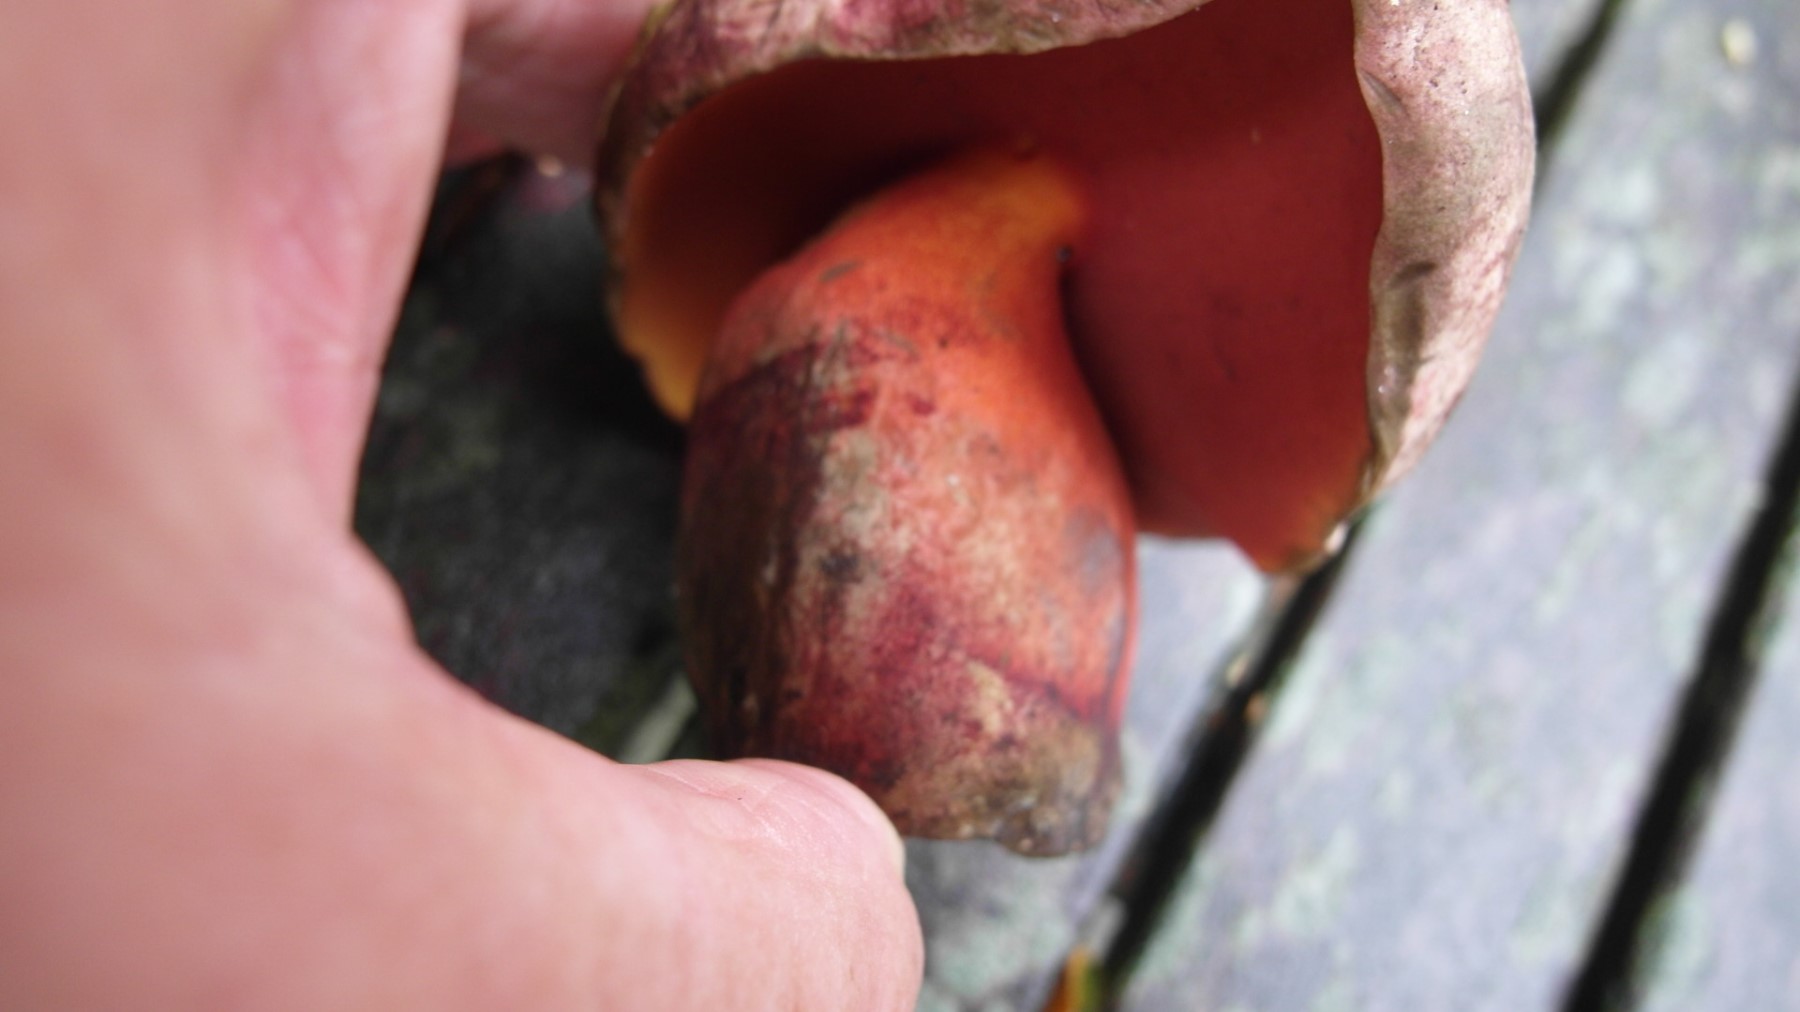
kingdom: Fungi
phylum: Basidiomycota
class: Agaricomycetes
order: Boletales
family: Boletaceae
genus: Rubroboletus
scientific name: Rubroboletus legaliae
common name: djævle-rørhat
